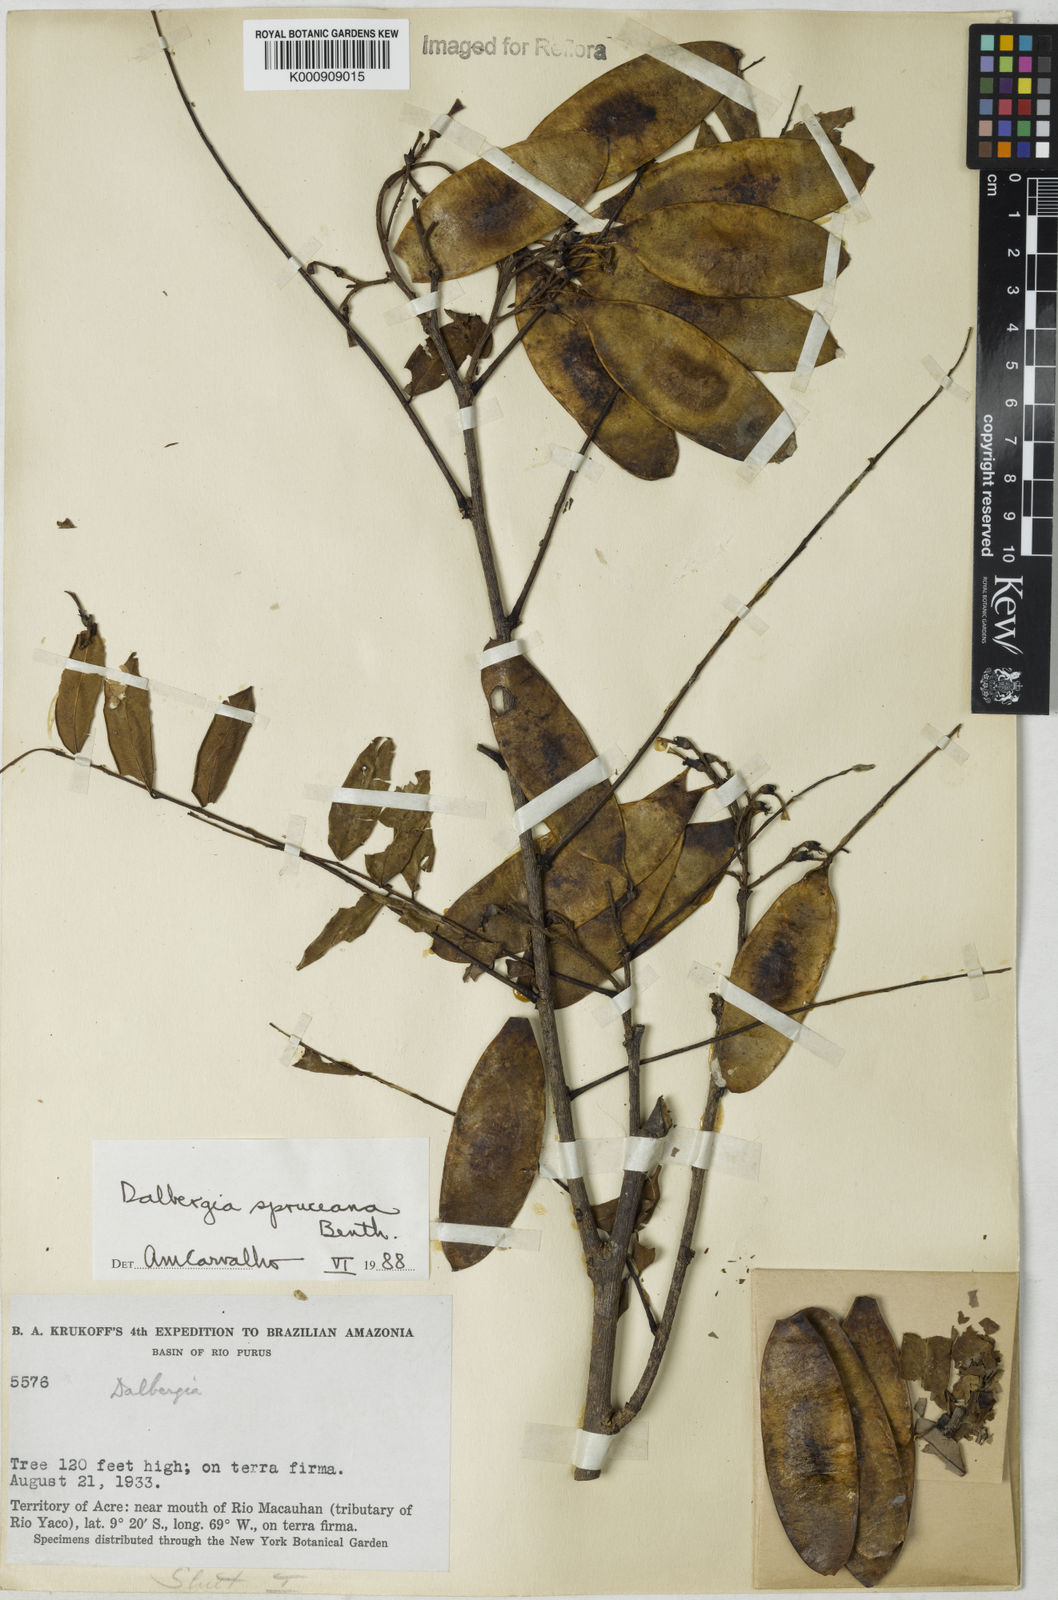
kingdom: Plantae
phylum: Tracheophyta
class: Magnoliopsida
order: Fabales
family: Fabaceae
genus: Dalbergia
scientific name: Dalbergia spruceana
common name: Amazon rosewood
